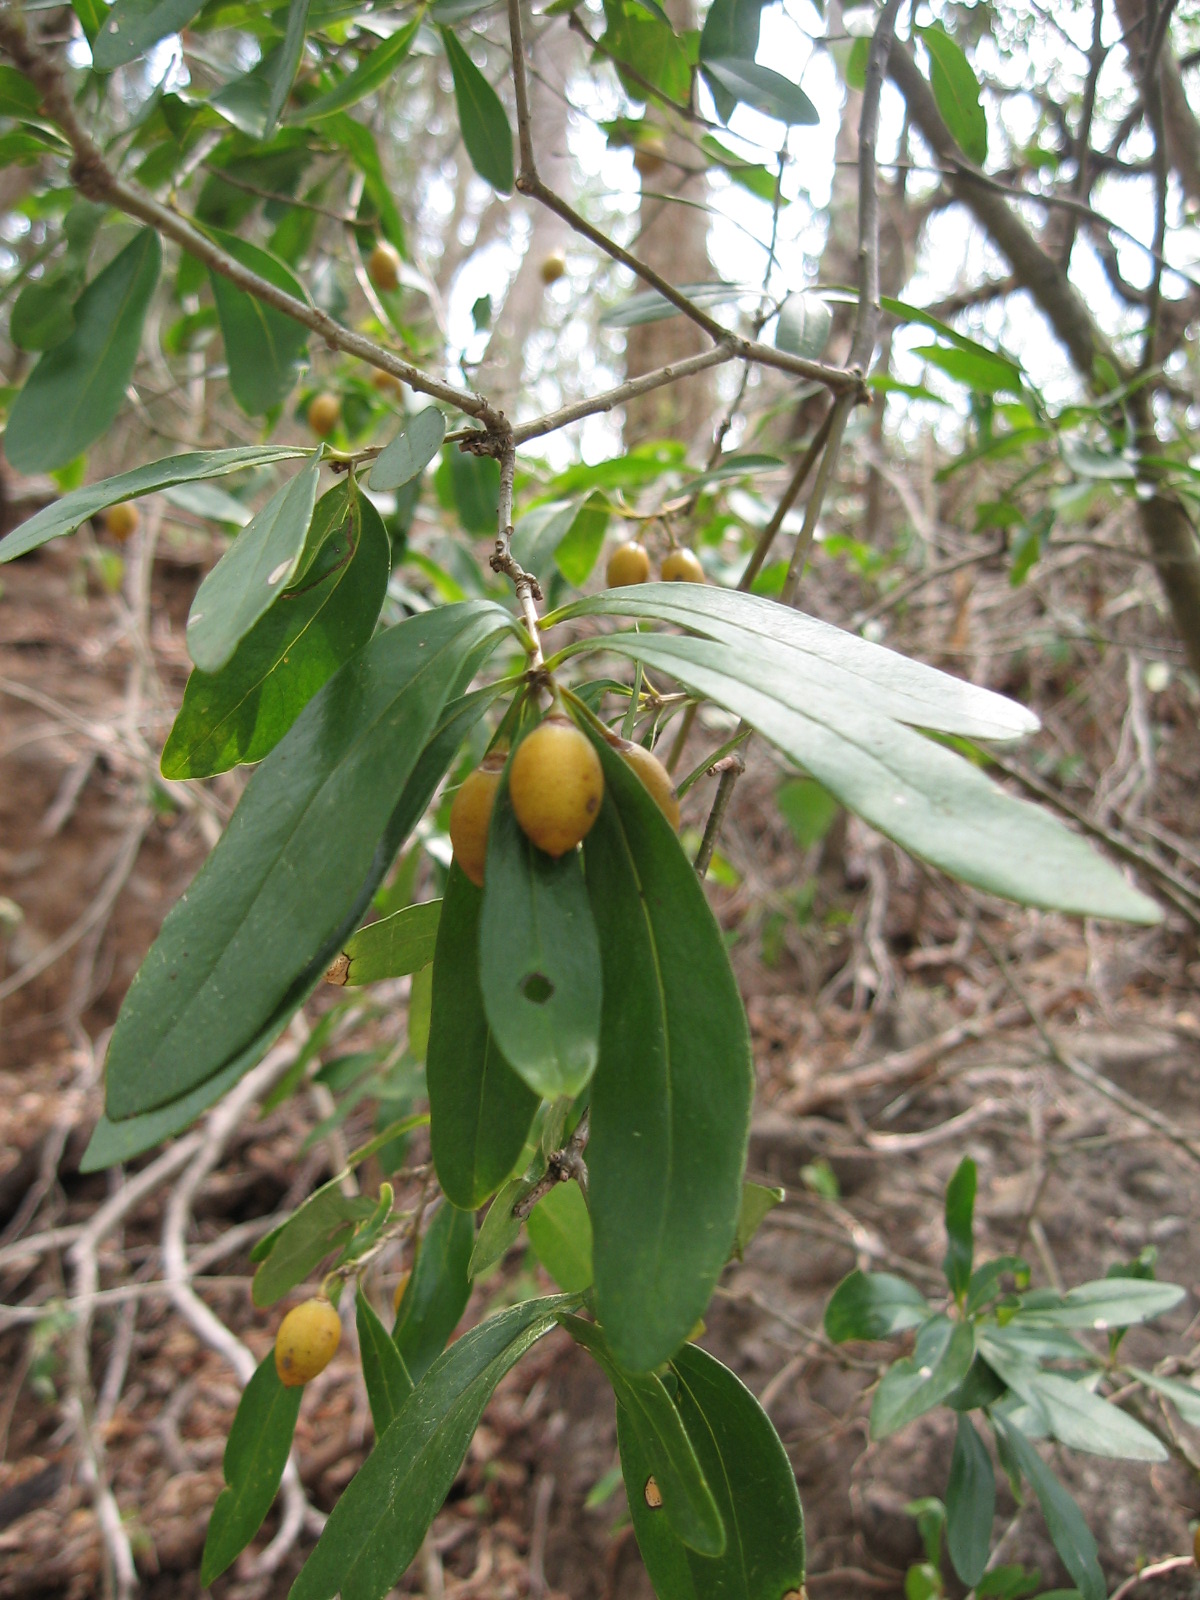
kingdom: Plantae
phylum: Tracheophyta
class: Magnoliopsida
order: Ericales
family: Primulaceae
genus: Bonellia
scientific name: Bonellia longifolia
